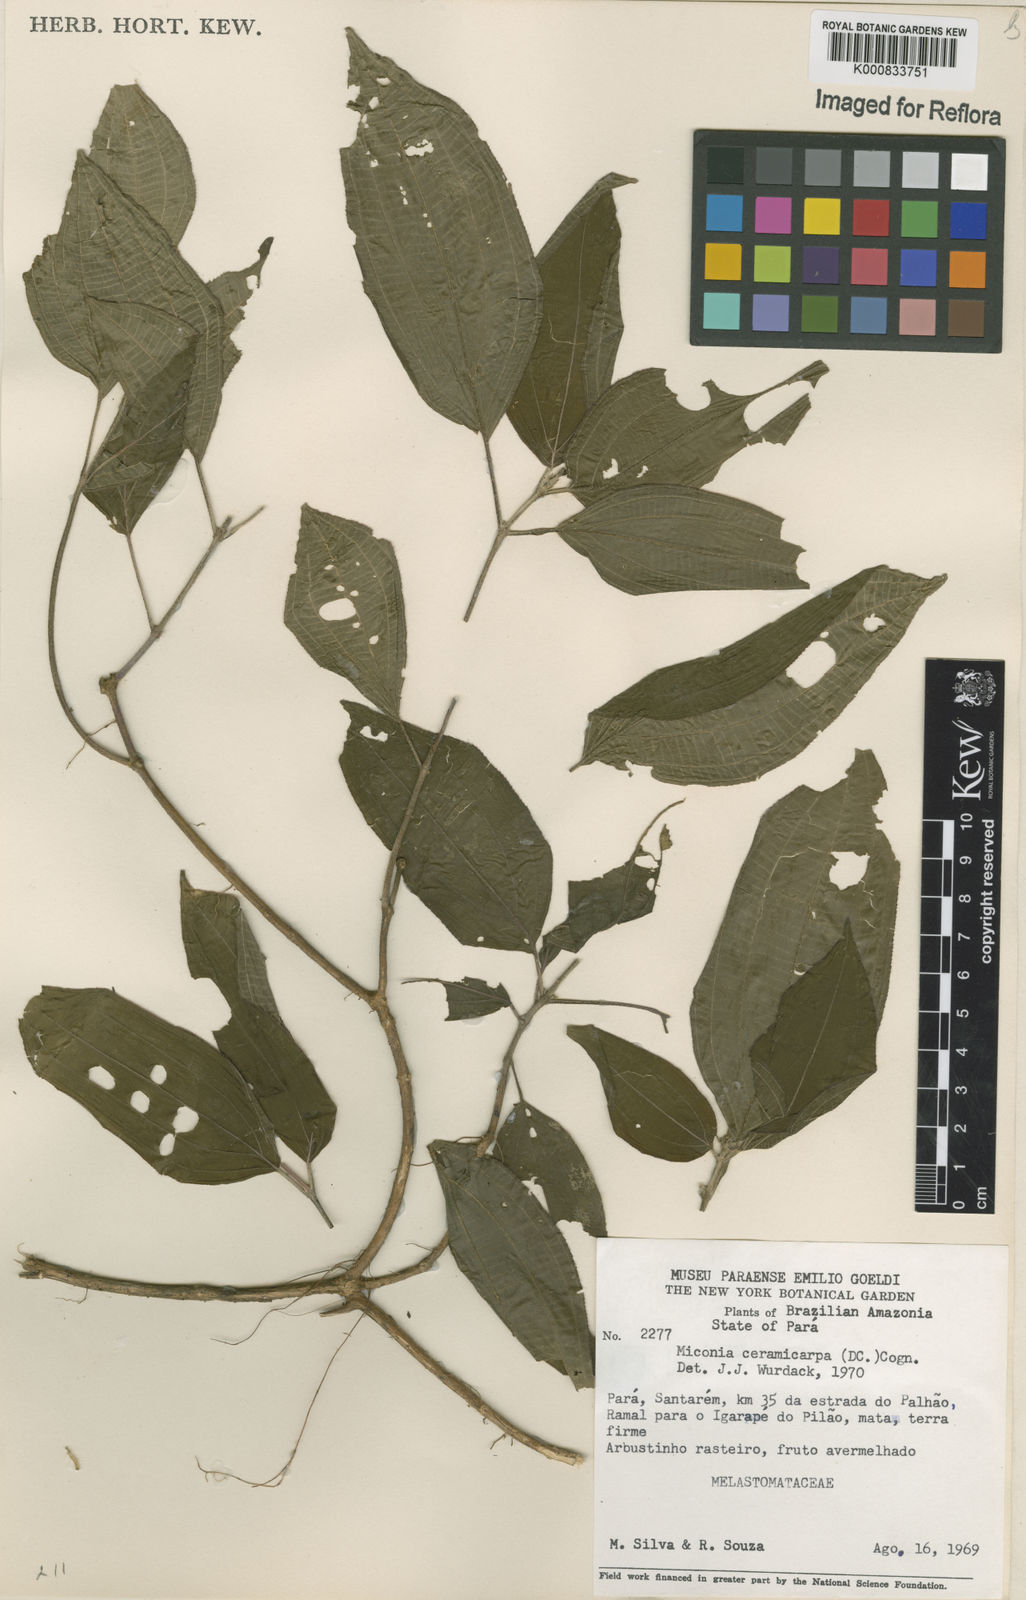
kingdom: Plantae
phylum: Tracheophyta
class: Magnoliopsida
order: Myrtales
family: Melastomataceae
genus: Miconia
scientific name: Miconia ceramicarpa
